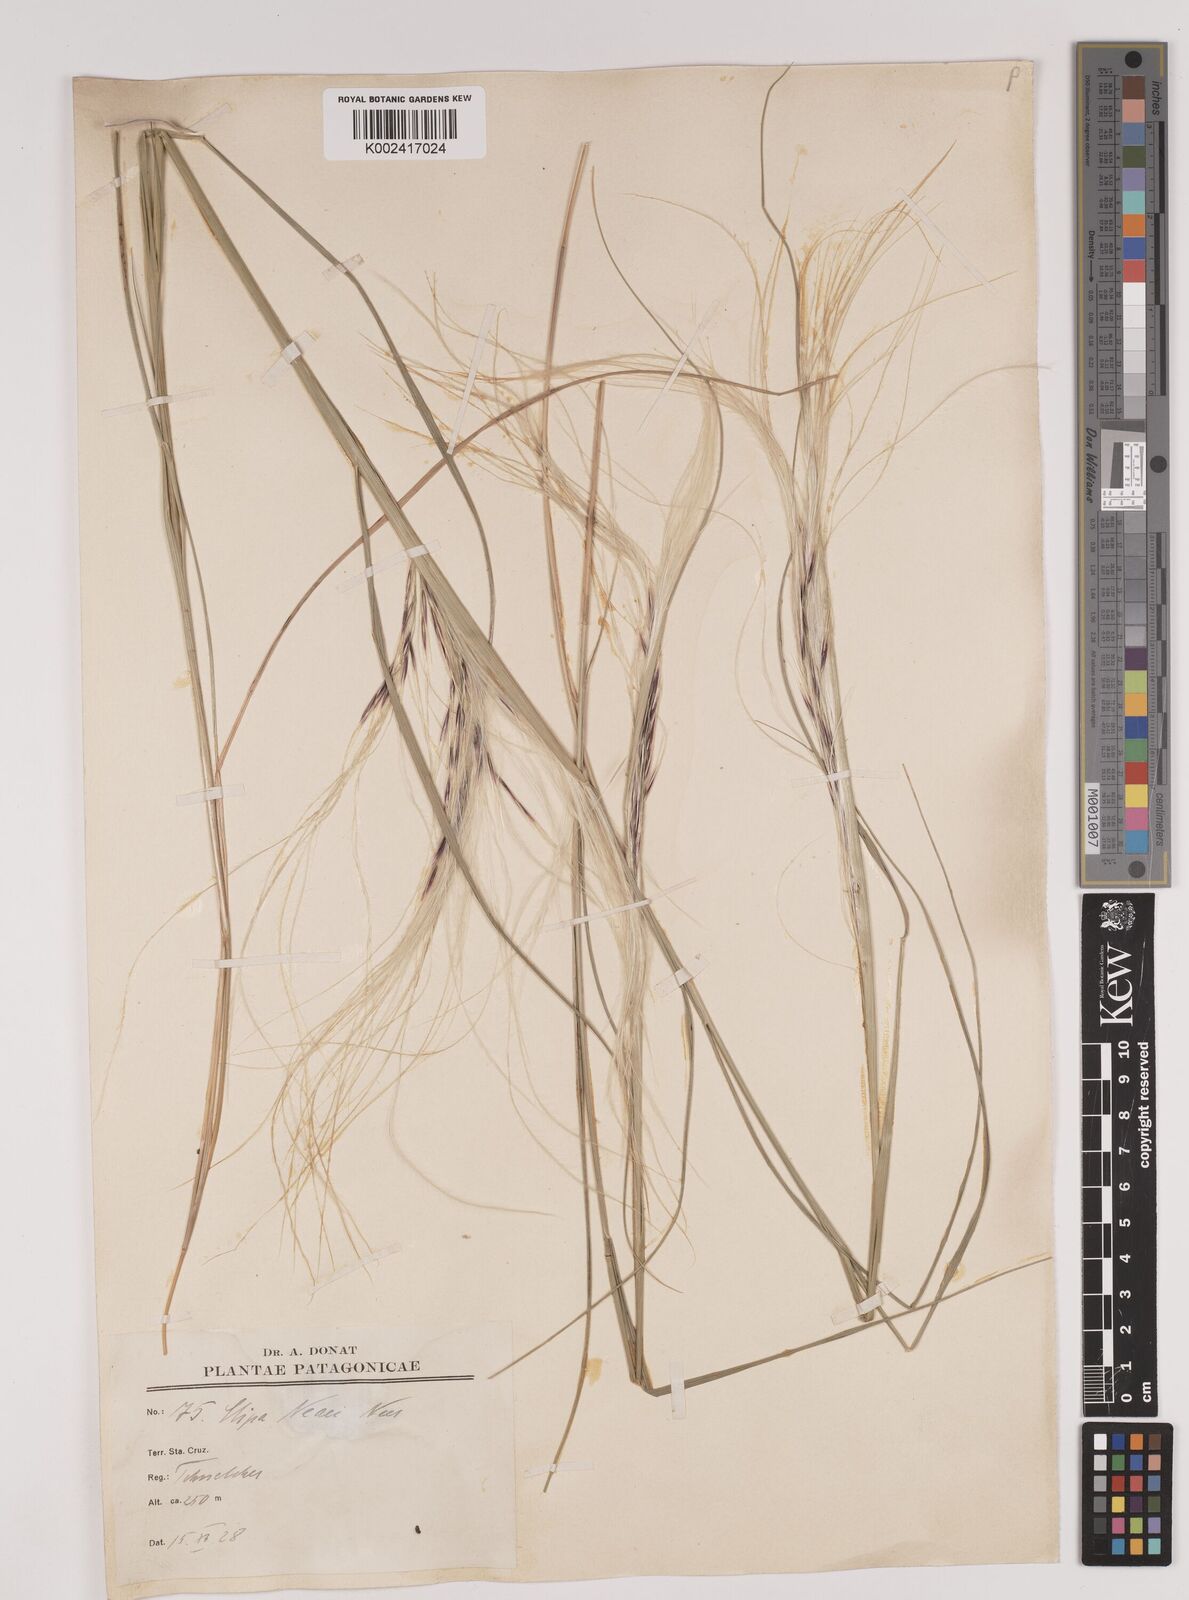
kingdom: Plantae
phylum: Tracheophyta
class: Liliopsida
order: Poales
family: Poaceae
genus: Stipa
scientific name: Stipa neaei
